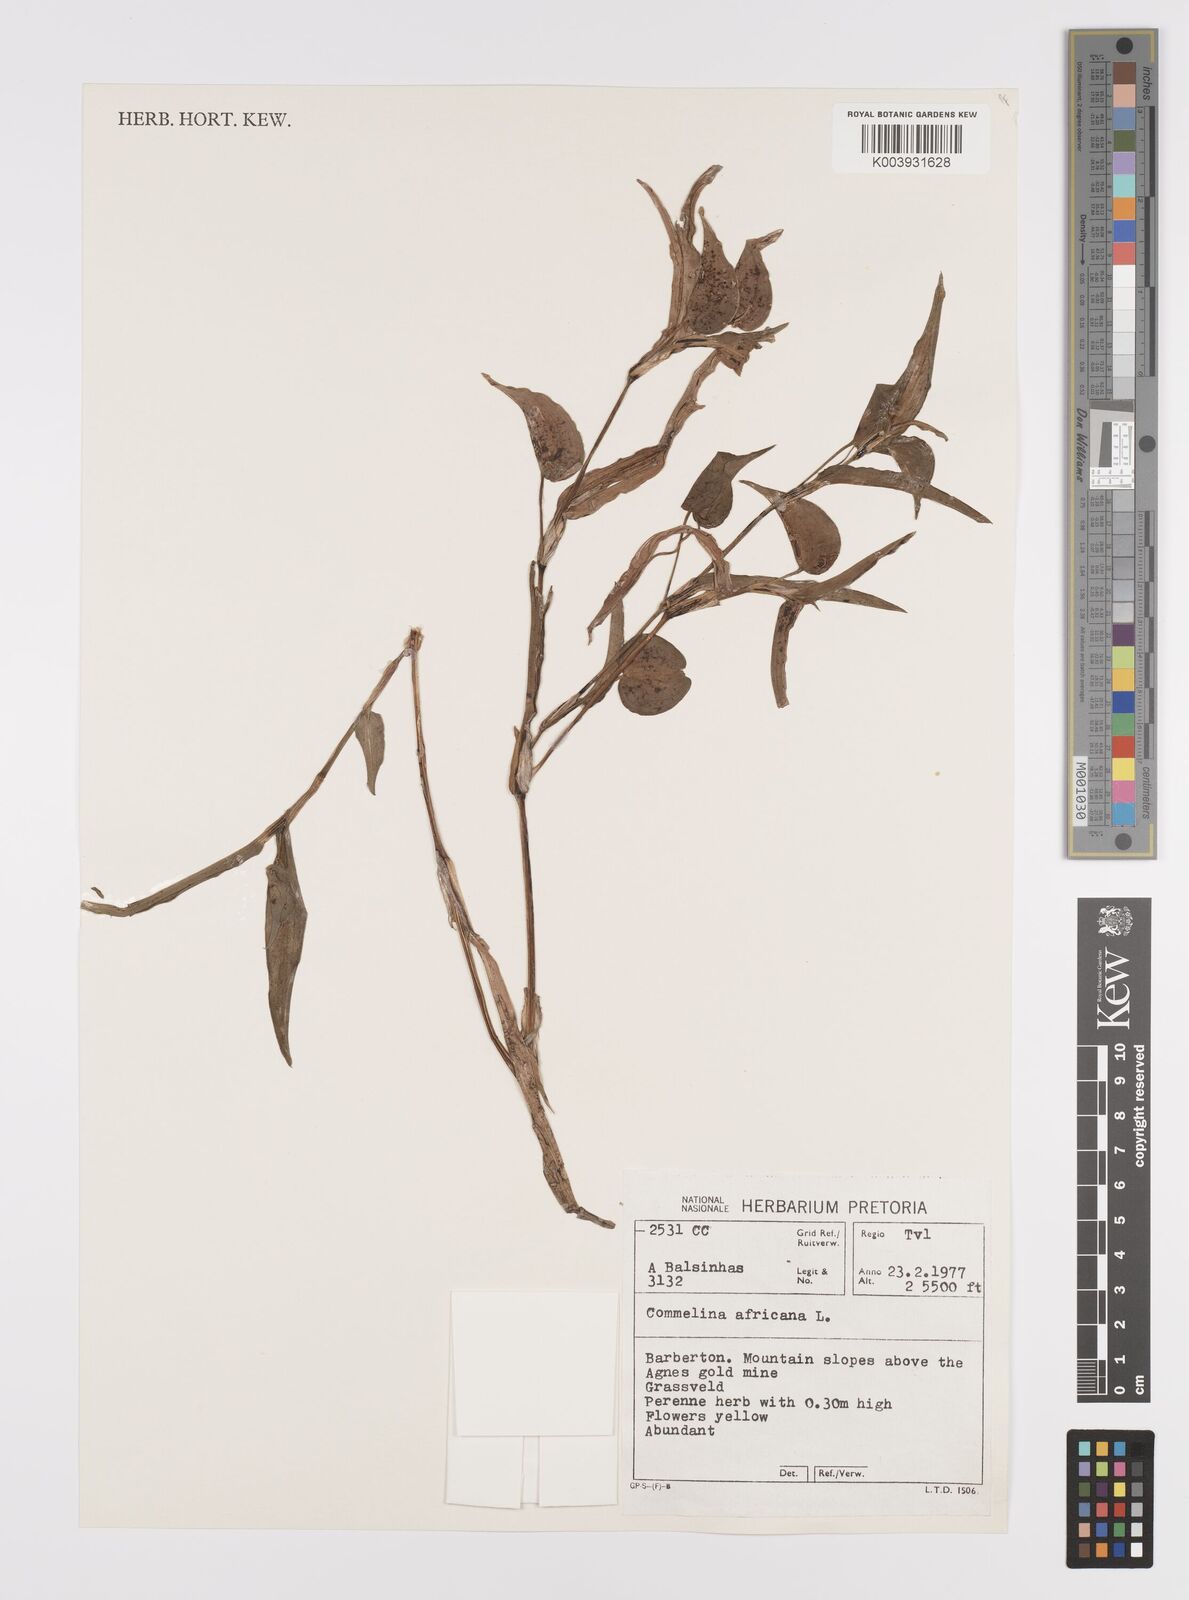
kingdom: Plantae
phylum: Tracheophyta
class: Liliopsida
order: Commelinales
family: Commelinaceae
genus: Commelina
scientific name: Commelina africana
